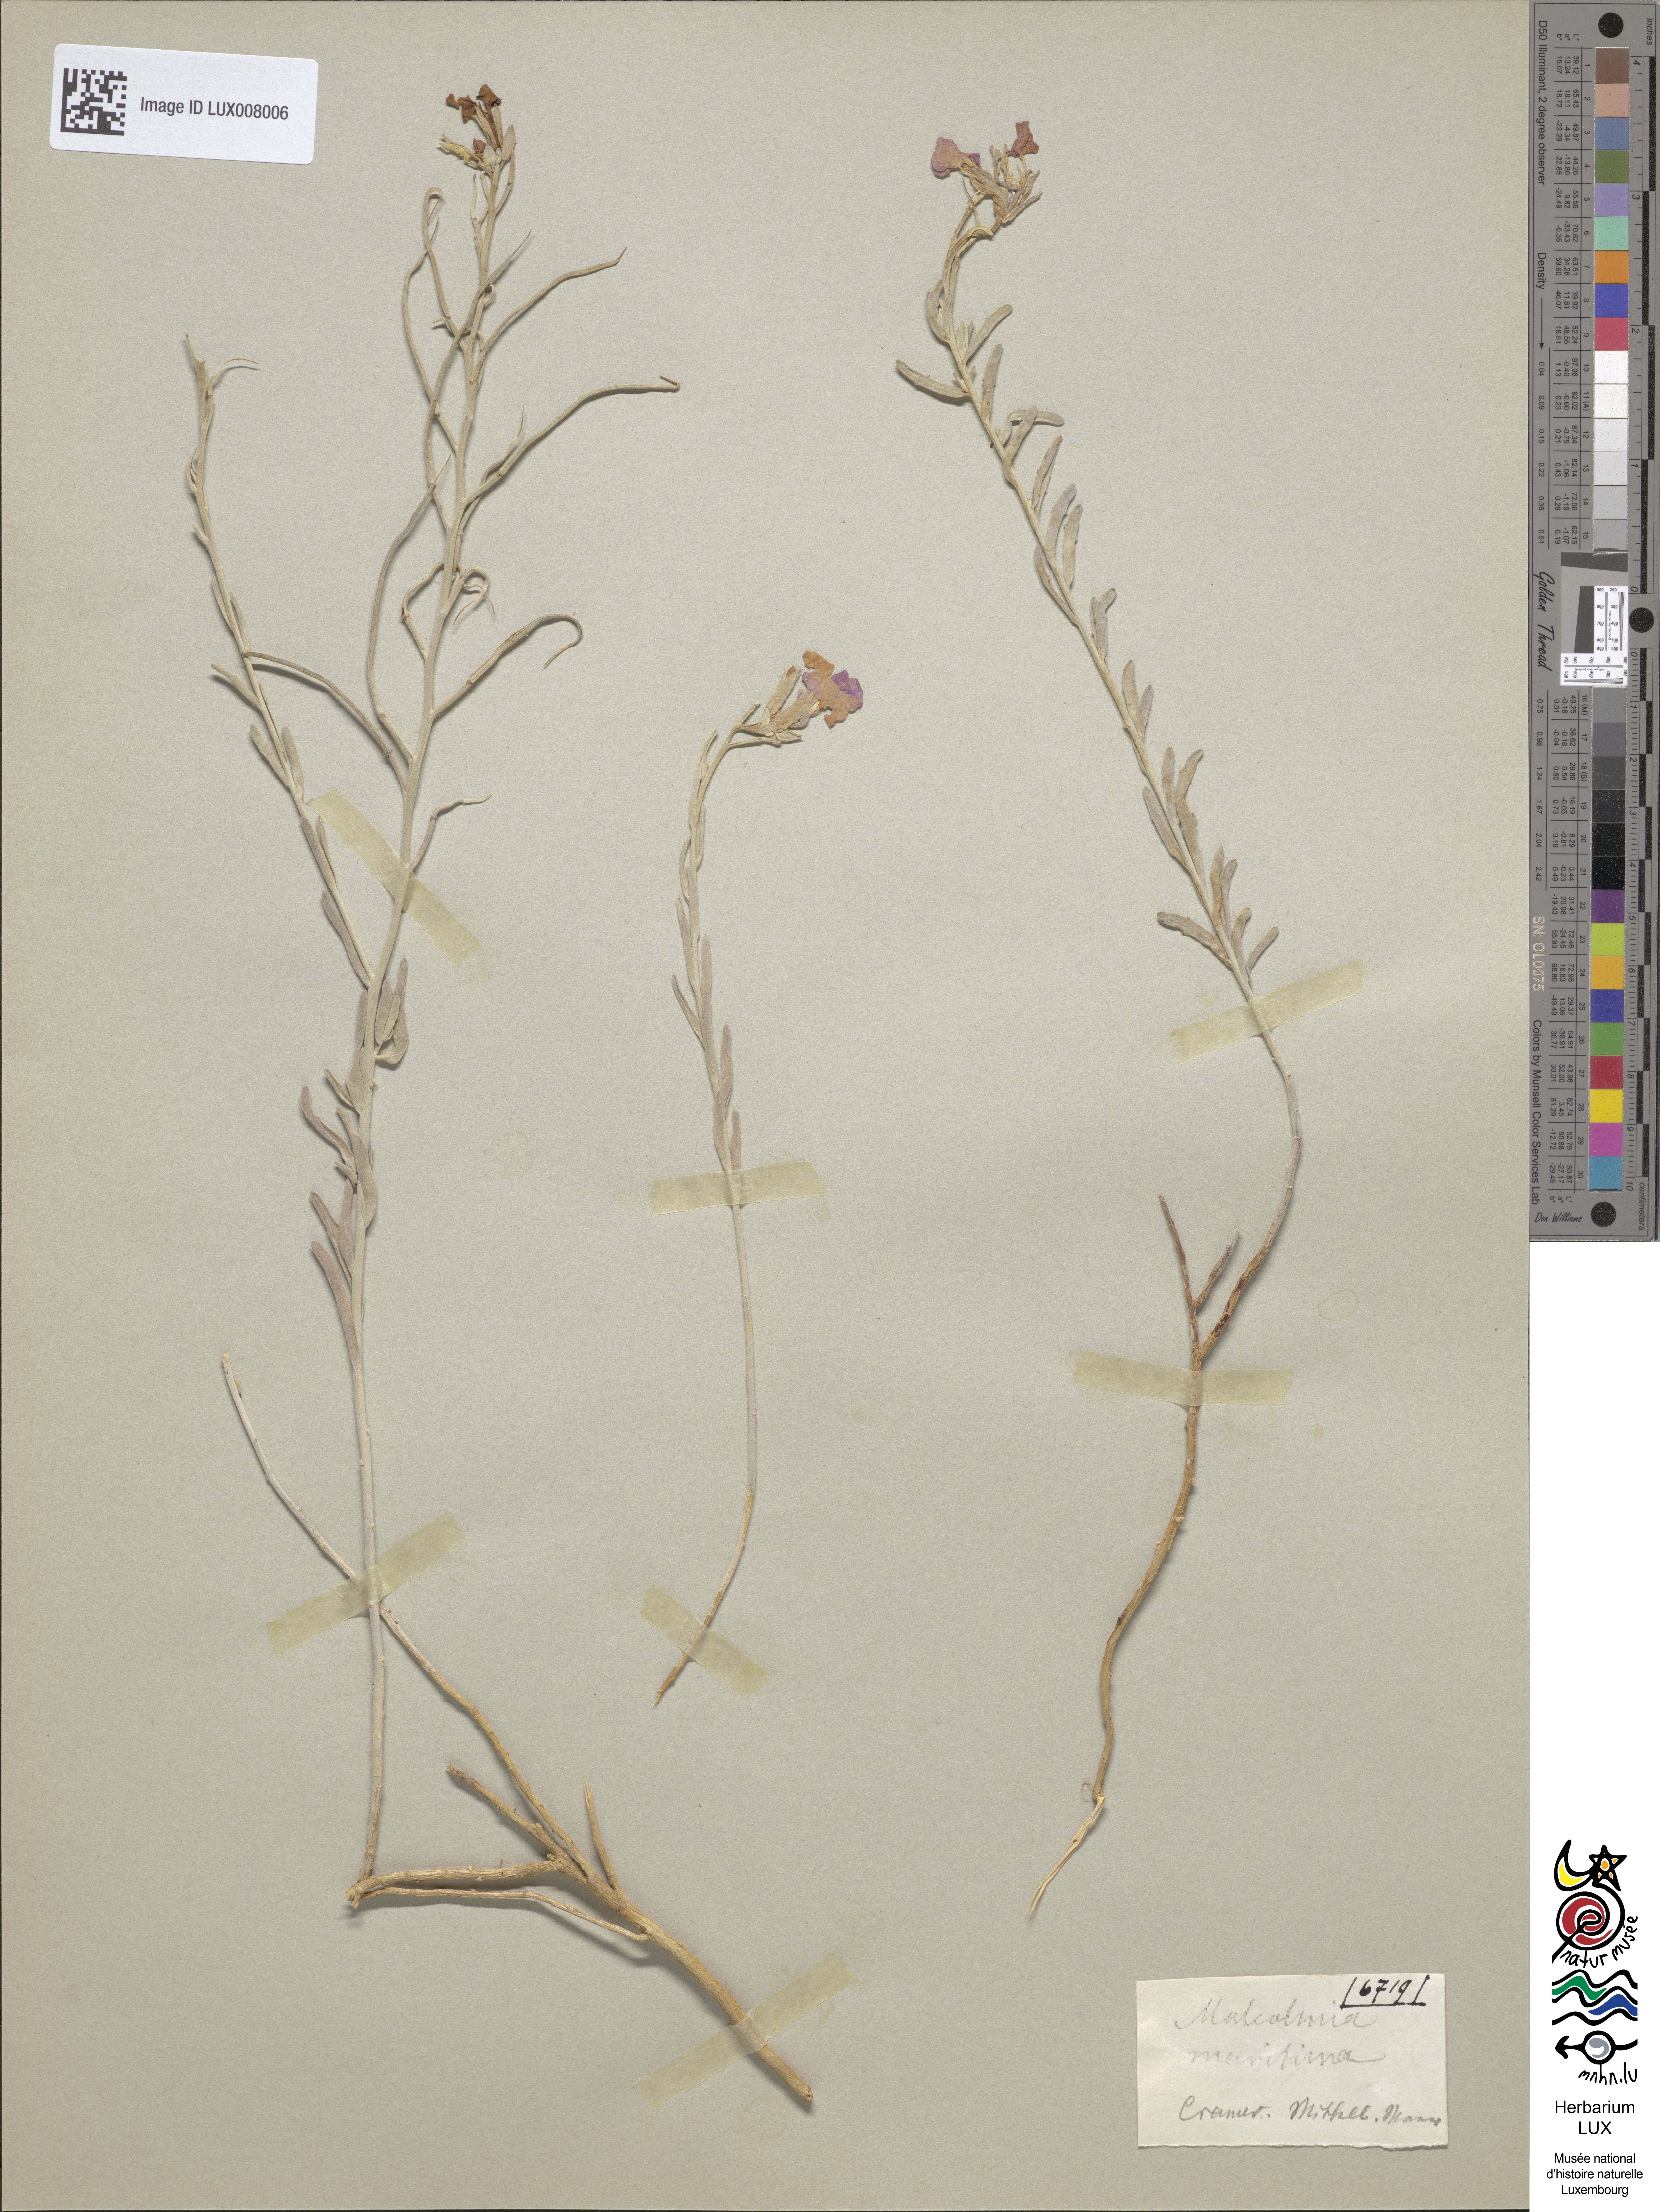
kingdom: Plantae
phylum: Tracheophyta
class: Magnoliopsida
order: Brassicales
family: Brassicaceae
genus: Malcolmia
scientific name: Malcolmia maritima
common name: Virginia stock
